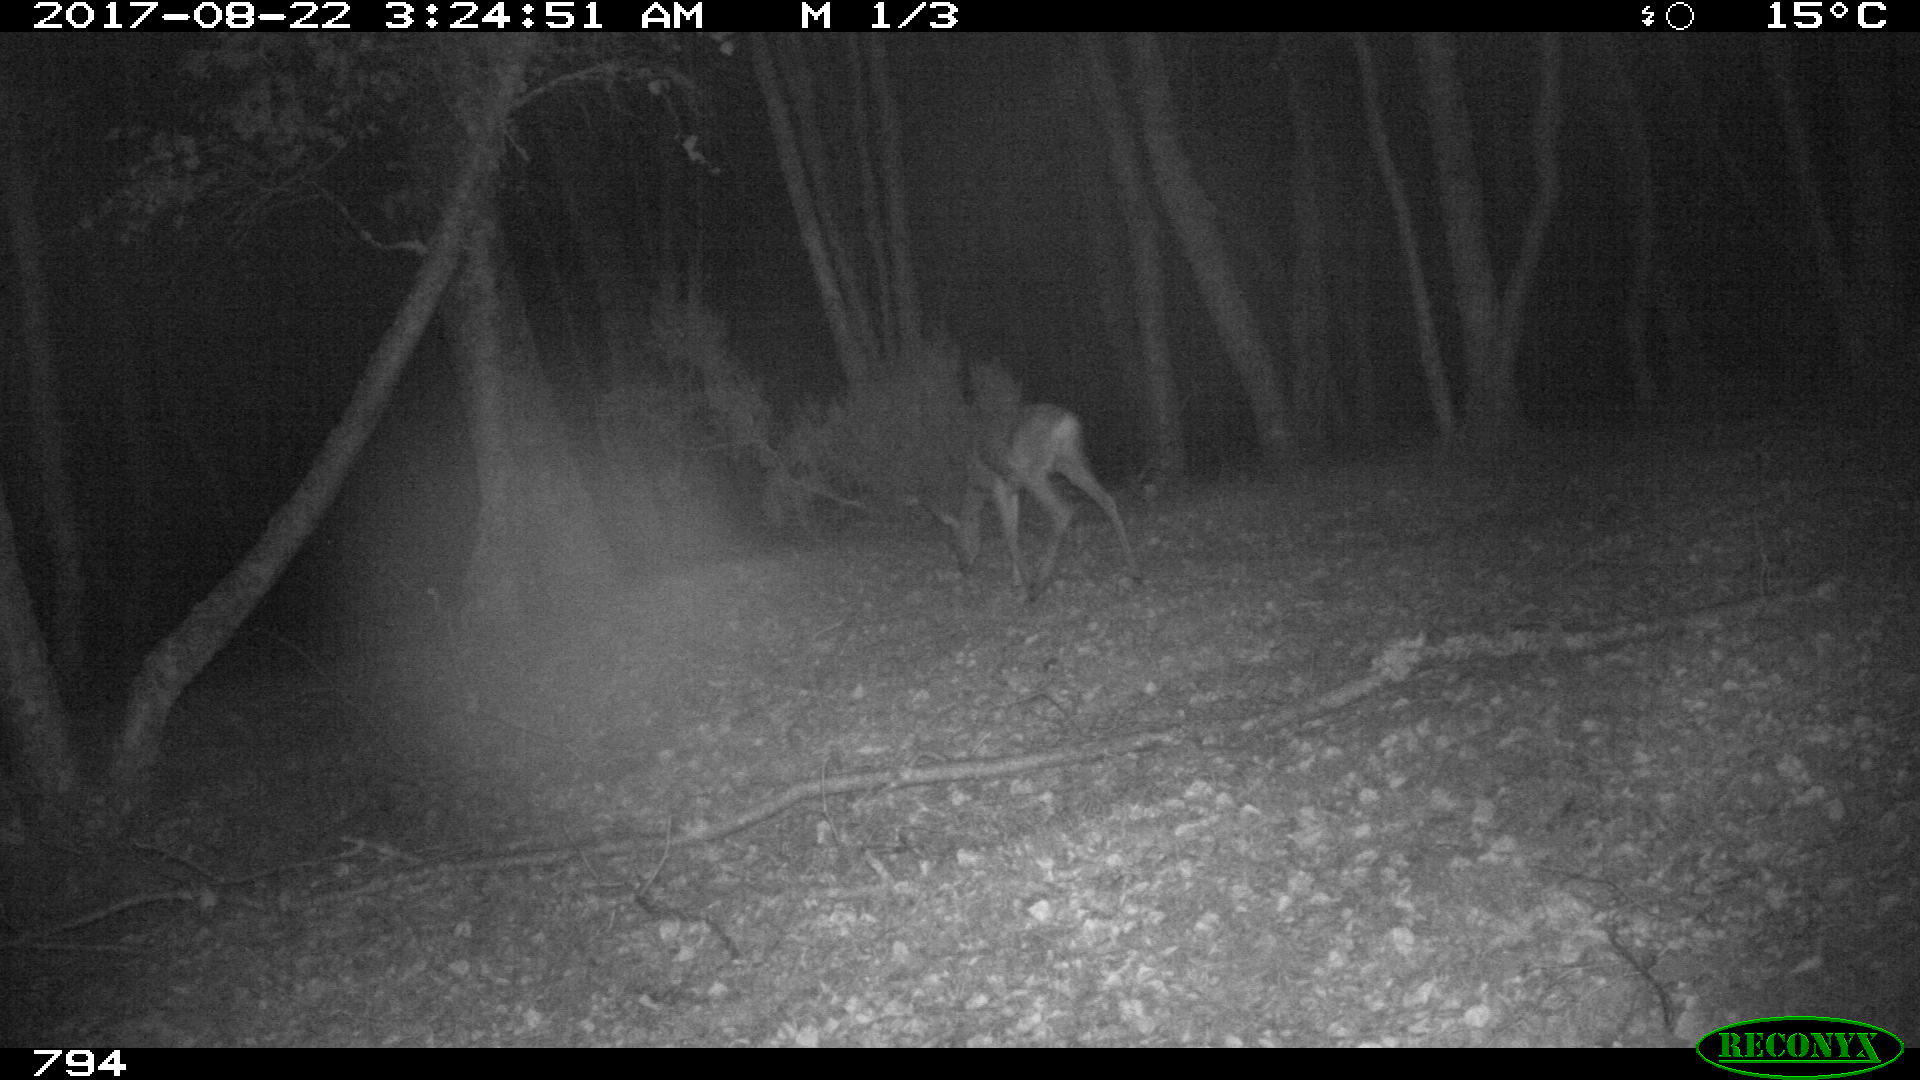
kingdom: Animalia
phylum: Chordata
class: Mammalia
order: Artiodactyla
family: Cervidae
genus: Capreolus
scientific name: Capreolus capreolus
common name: Western roe deer
